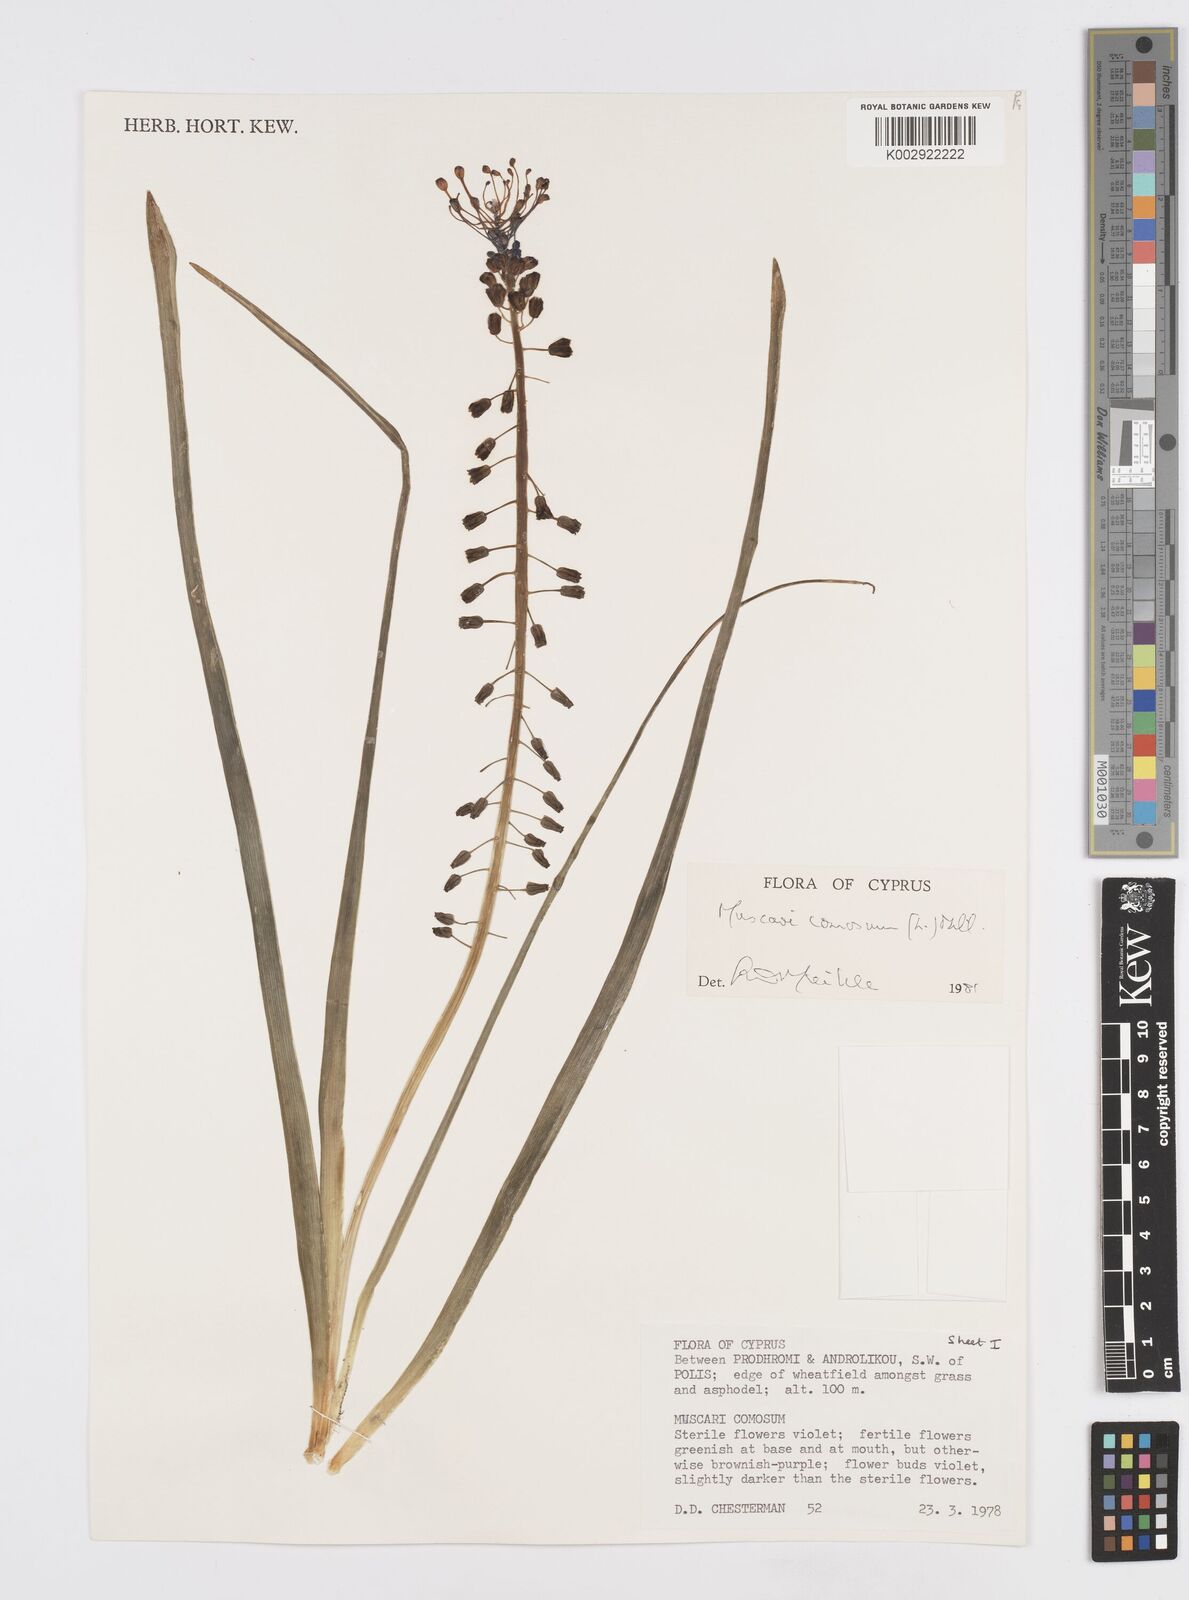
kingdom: Plantae
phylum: Tracheophyta
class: Liliopsida
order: Asparagales
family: Asparagaceae
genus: Muscari
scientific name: Muscari comosum
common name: Tassel hyacinth
